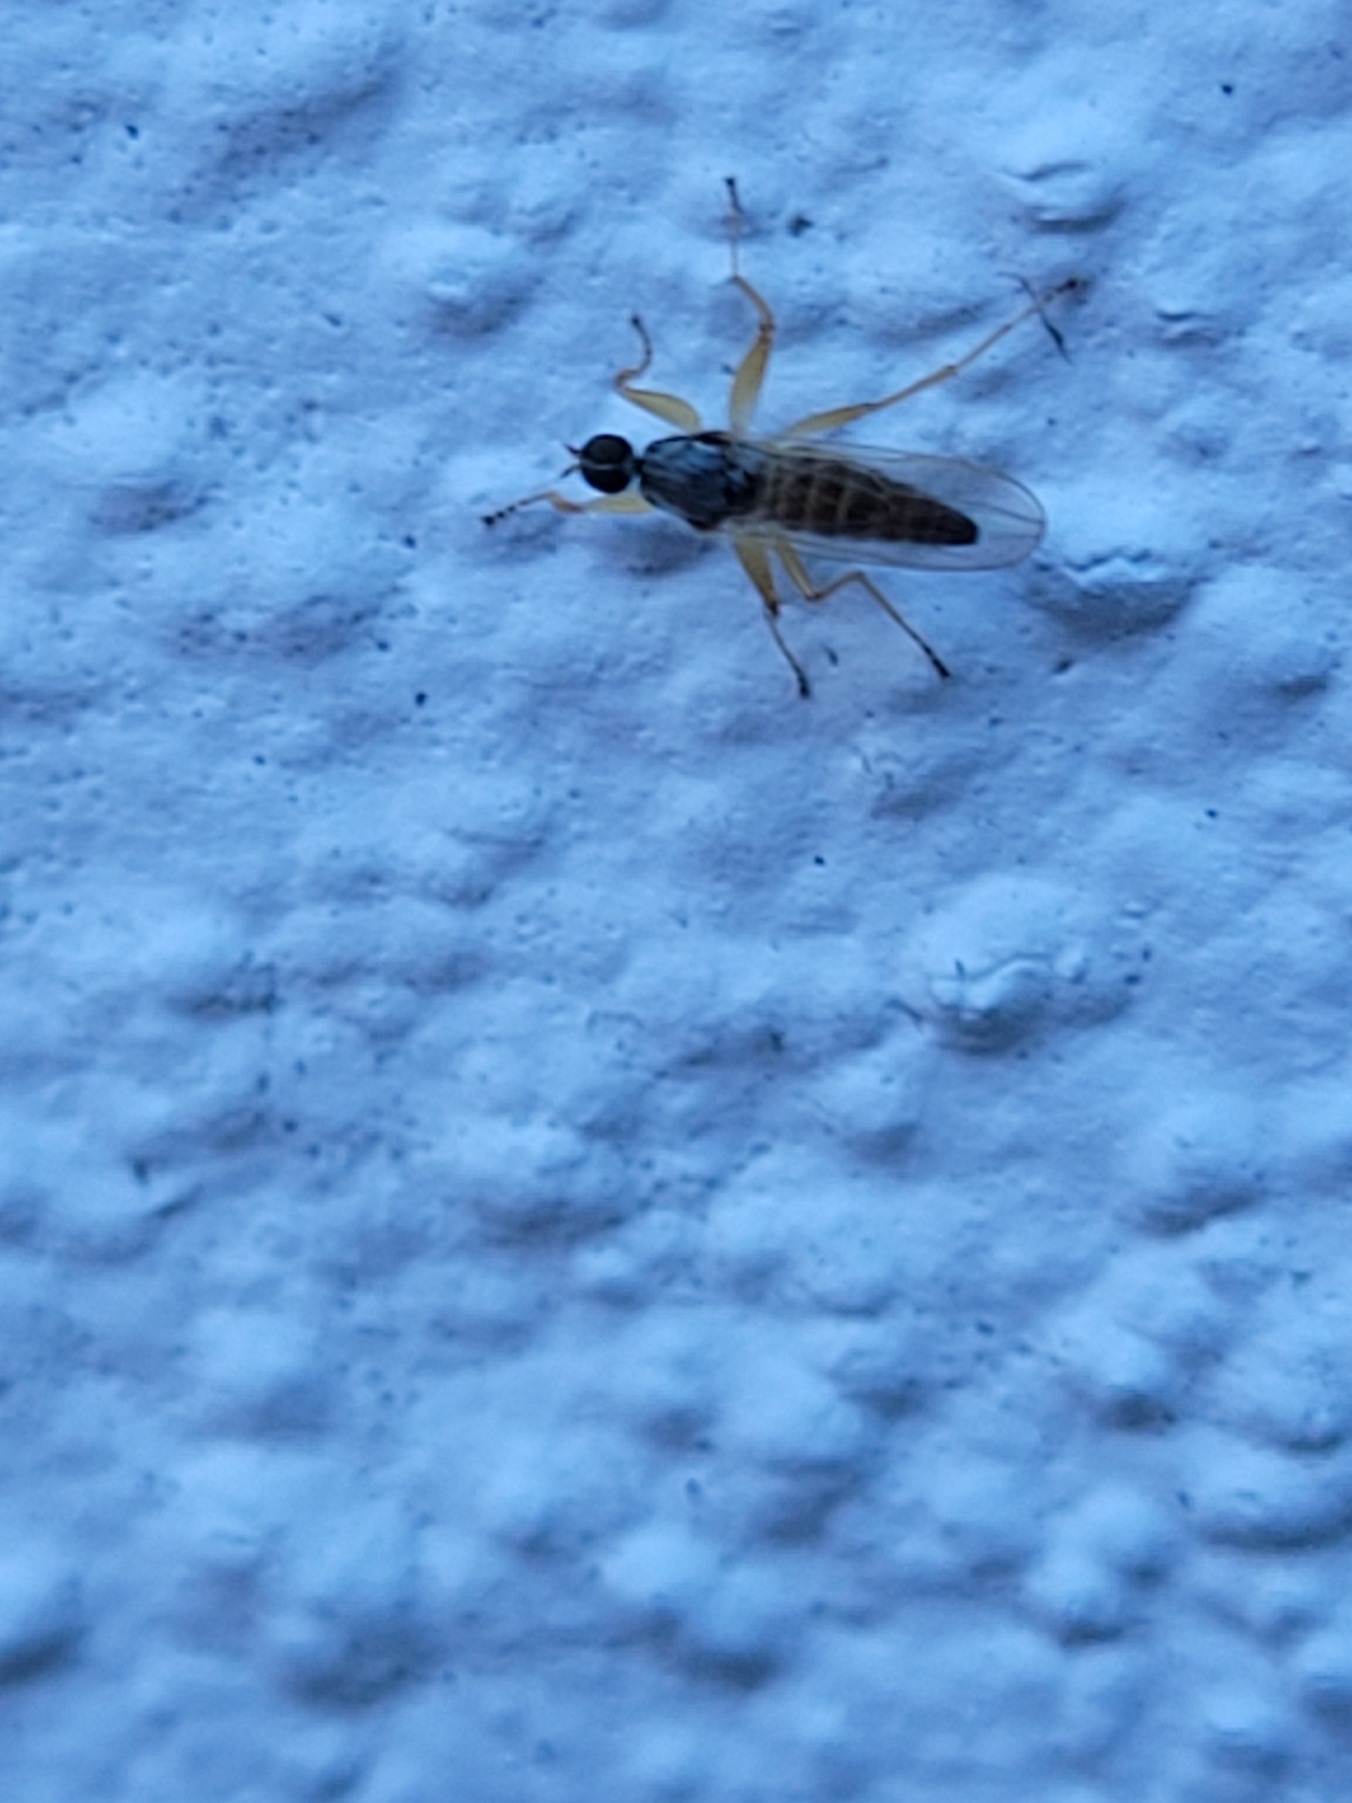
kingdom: Animalia
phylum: Arthropoda
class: Insecta
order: Diptera
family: Hybotidae
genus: Platypalpus
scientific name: Platypalpus
